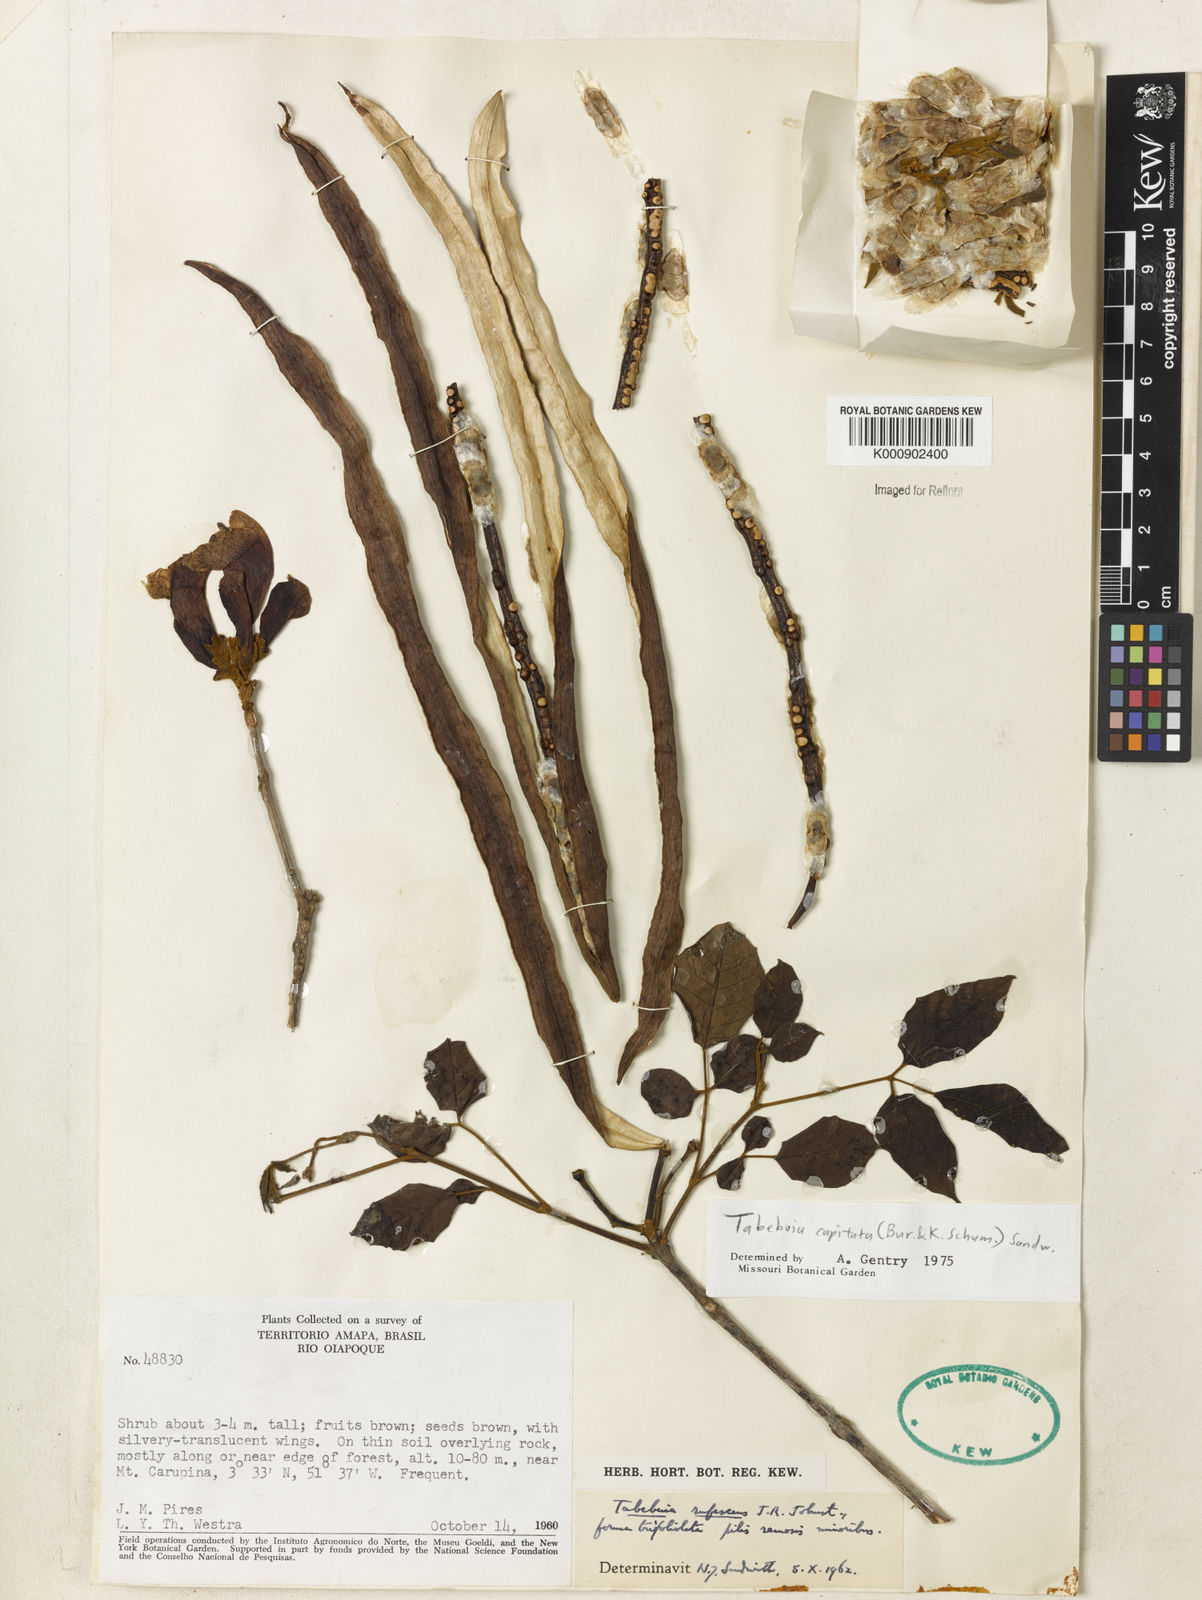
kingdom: Plantae
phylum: Tracheophyta
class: Magnoliopsida
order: Lamiales
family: Bignoniaceae
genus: Handroanthus
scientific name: Handroanthus capitatus
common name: Trumpet trees
